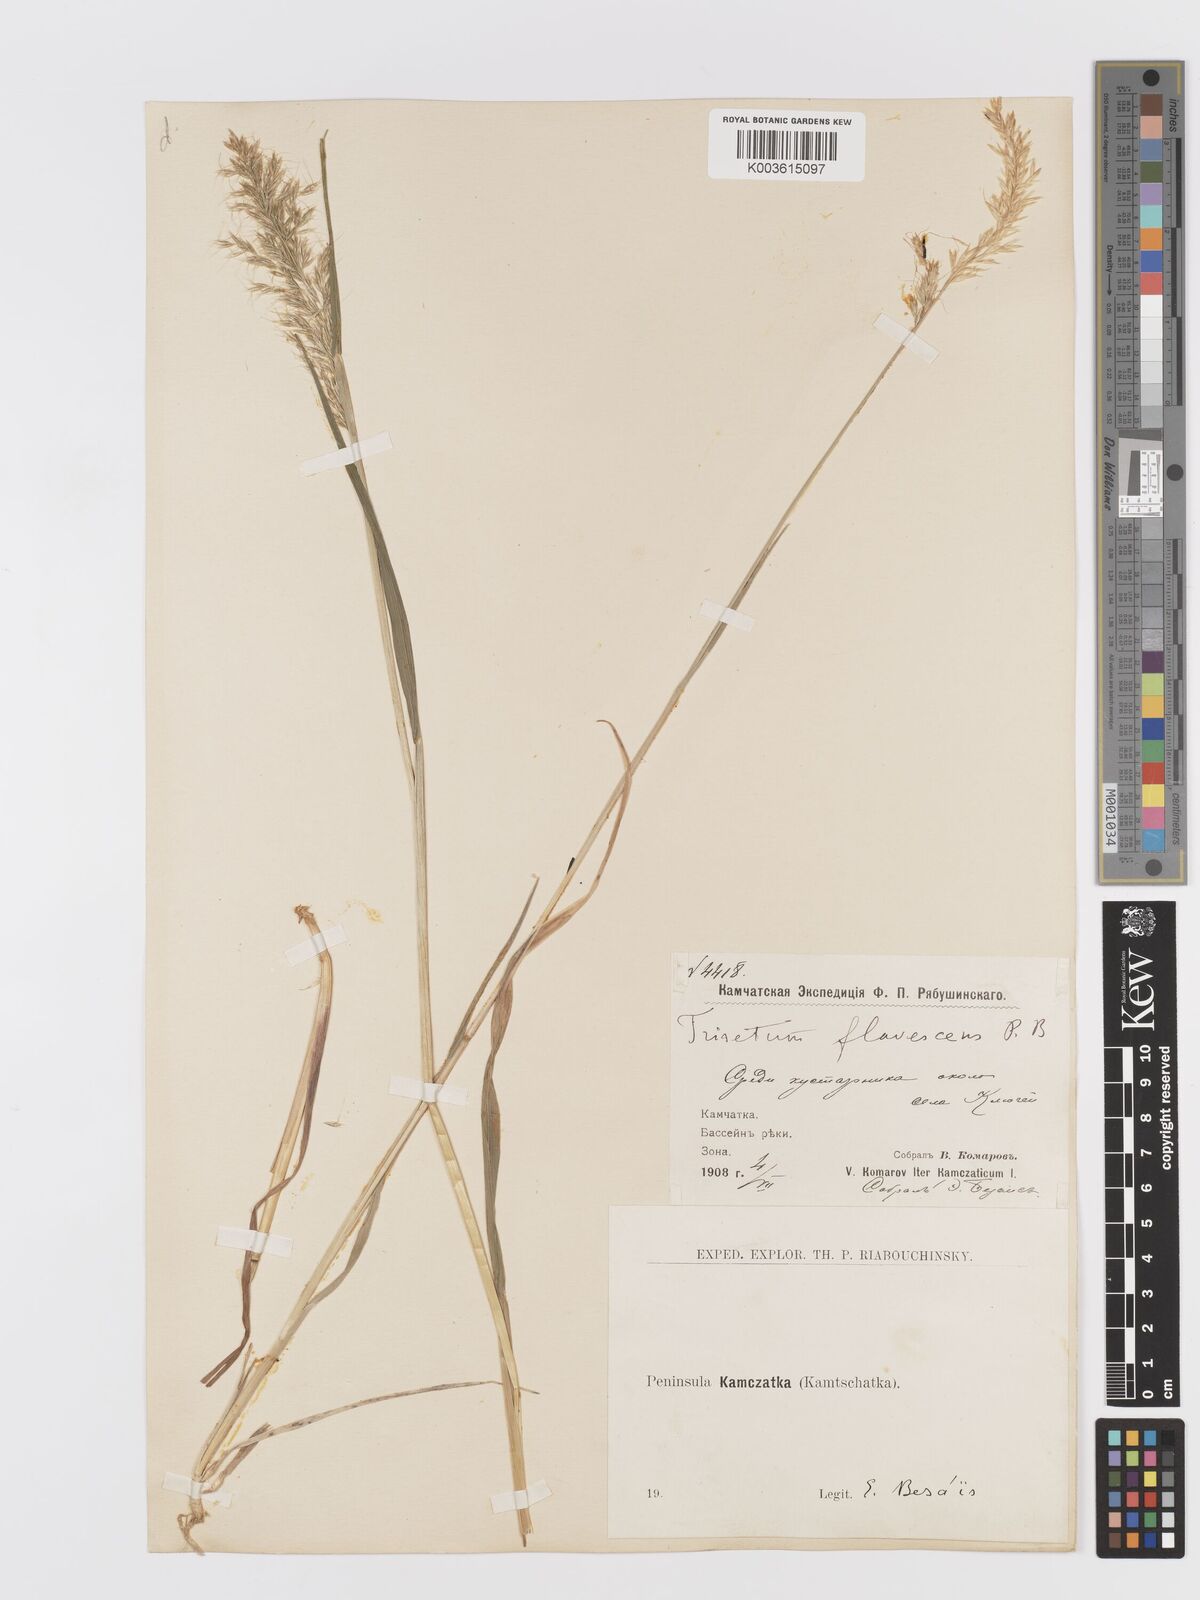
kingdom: Plantae
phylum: Tracheophyta
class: Liliopsida
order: Poales
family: Poaceae
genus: Trisetum
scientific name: Trisetum flavescens
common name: Yellow oat-grass
